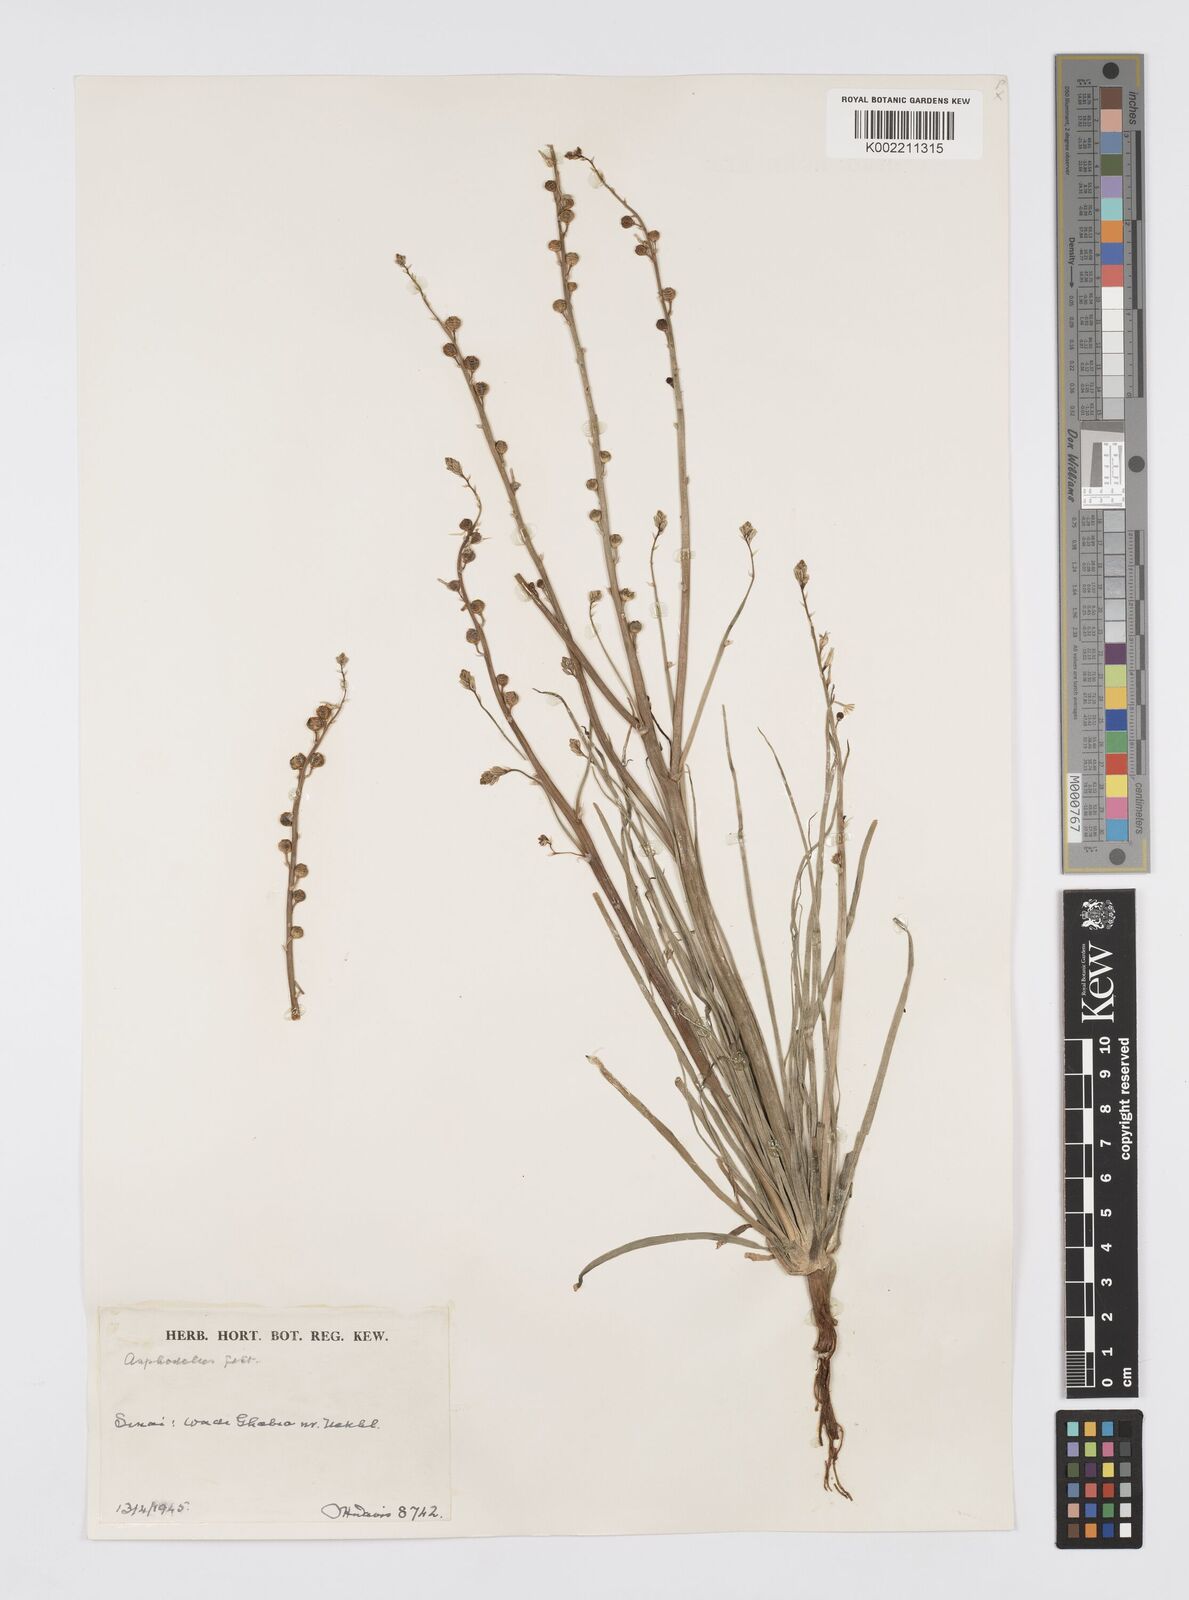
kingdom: Plantae
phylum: Tracheophyta
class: Liliopsida
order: Asparagales
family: Asphodelaceae
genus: Asphodeline
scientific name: Asphodeline tenuior
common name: Thin asphodeline
